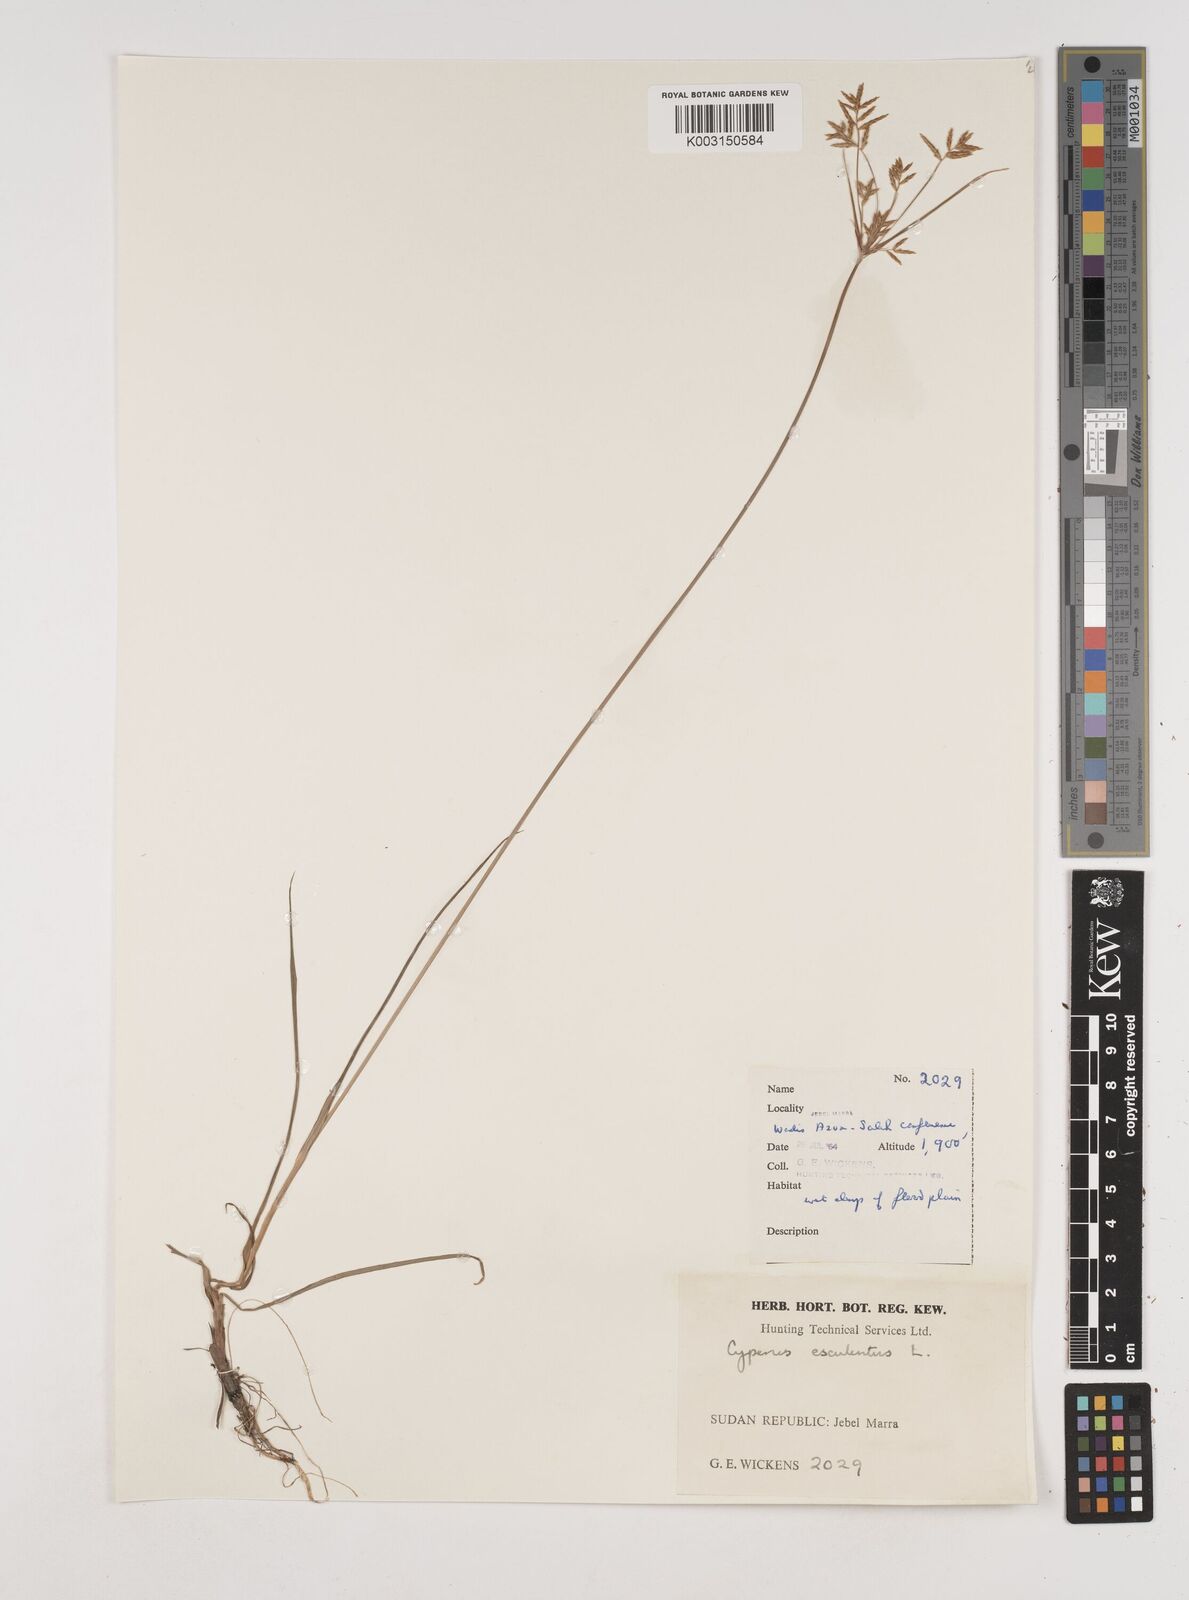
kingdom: Plantae
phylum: Tracheophyta
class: Liliopsida
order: Poales
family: Cyperaceae
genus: Cyperus
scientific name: Cyperus esculentus
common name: Yellow nutsedge
